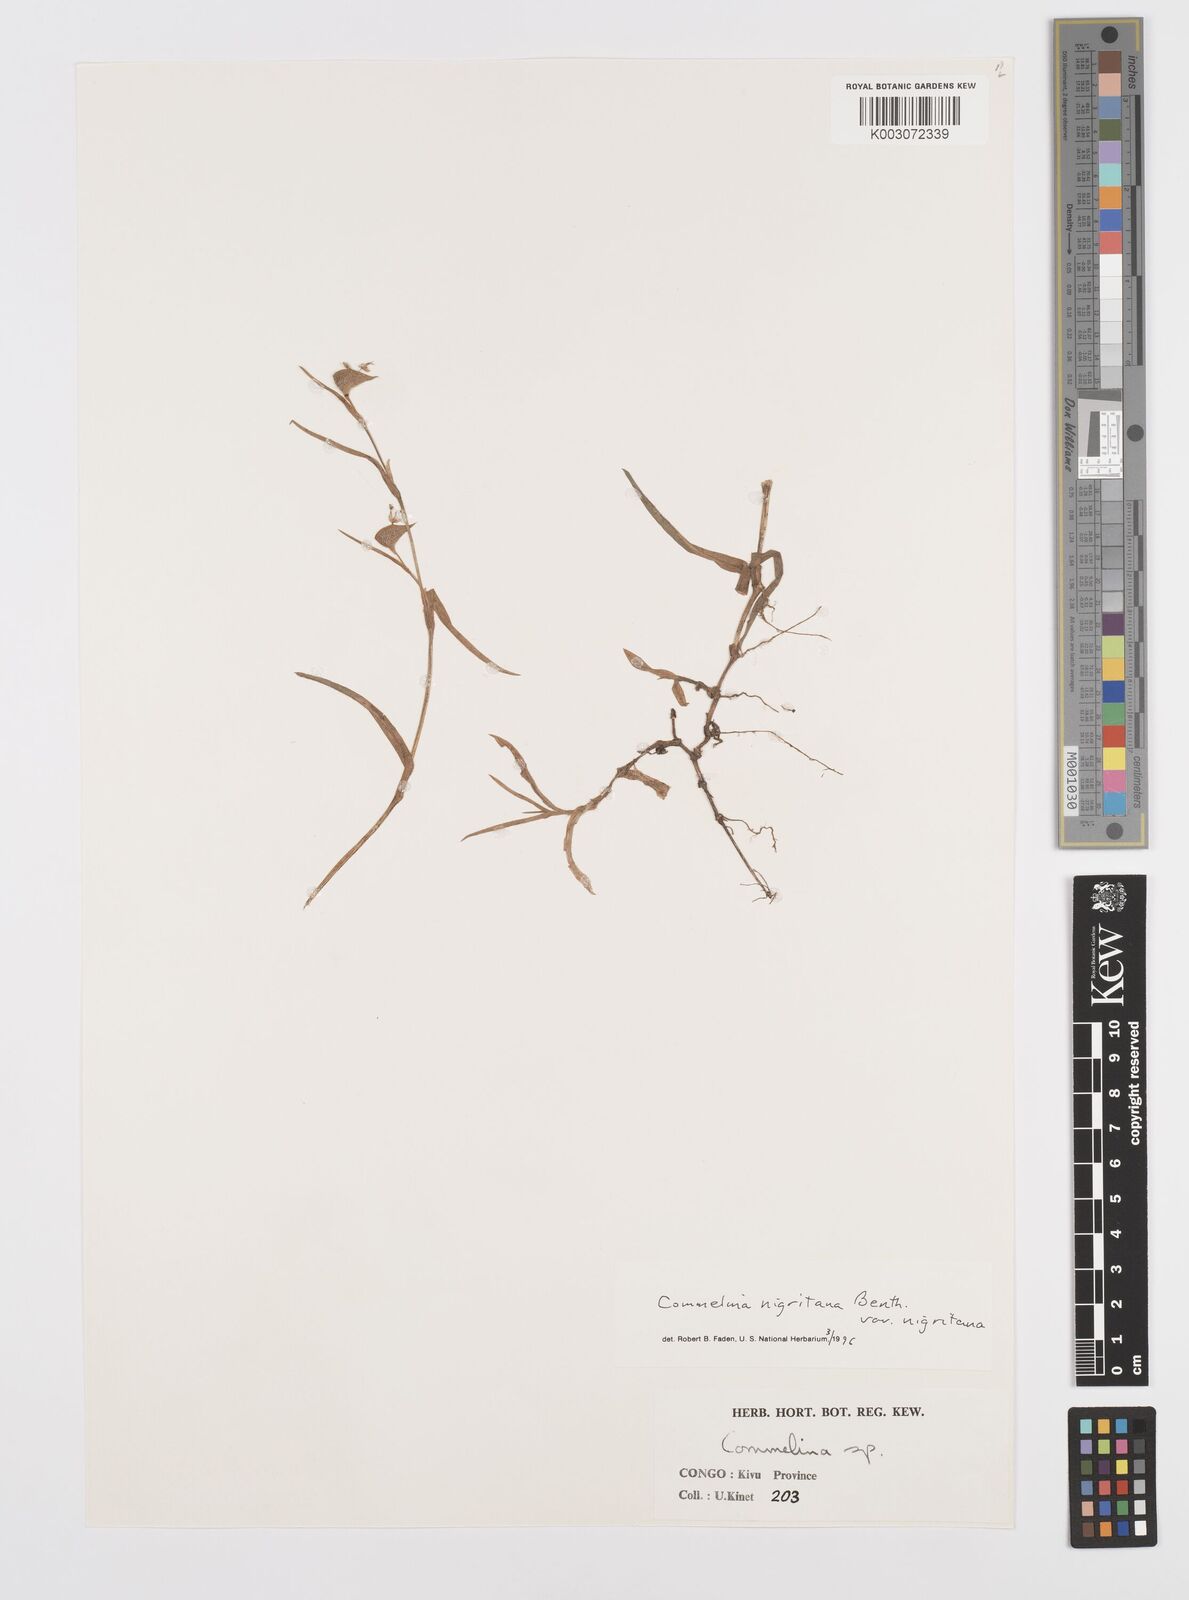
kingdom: Plantae
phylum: Tracheophyta
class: Liliopsida
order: Commelinales
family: Commelinaceae
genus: Commelina
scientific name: Commelina
